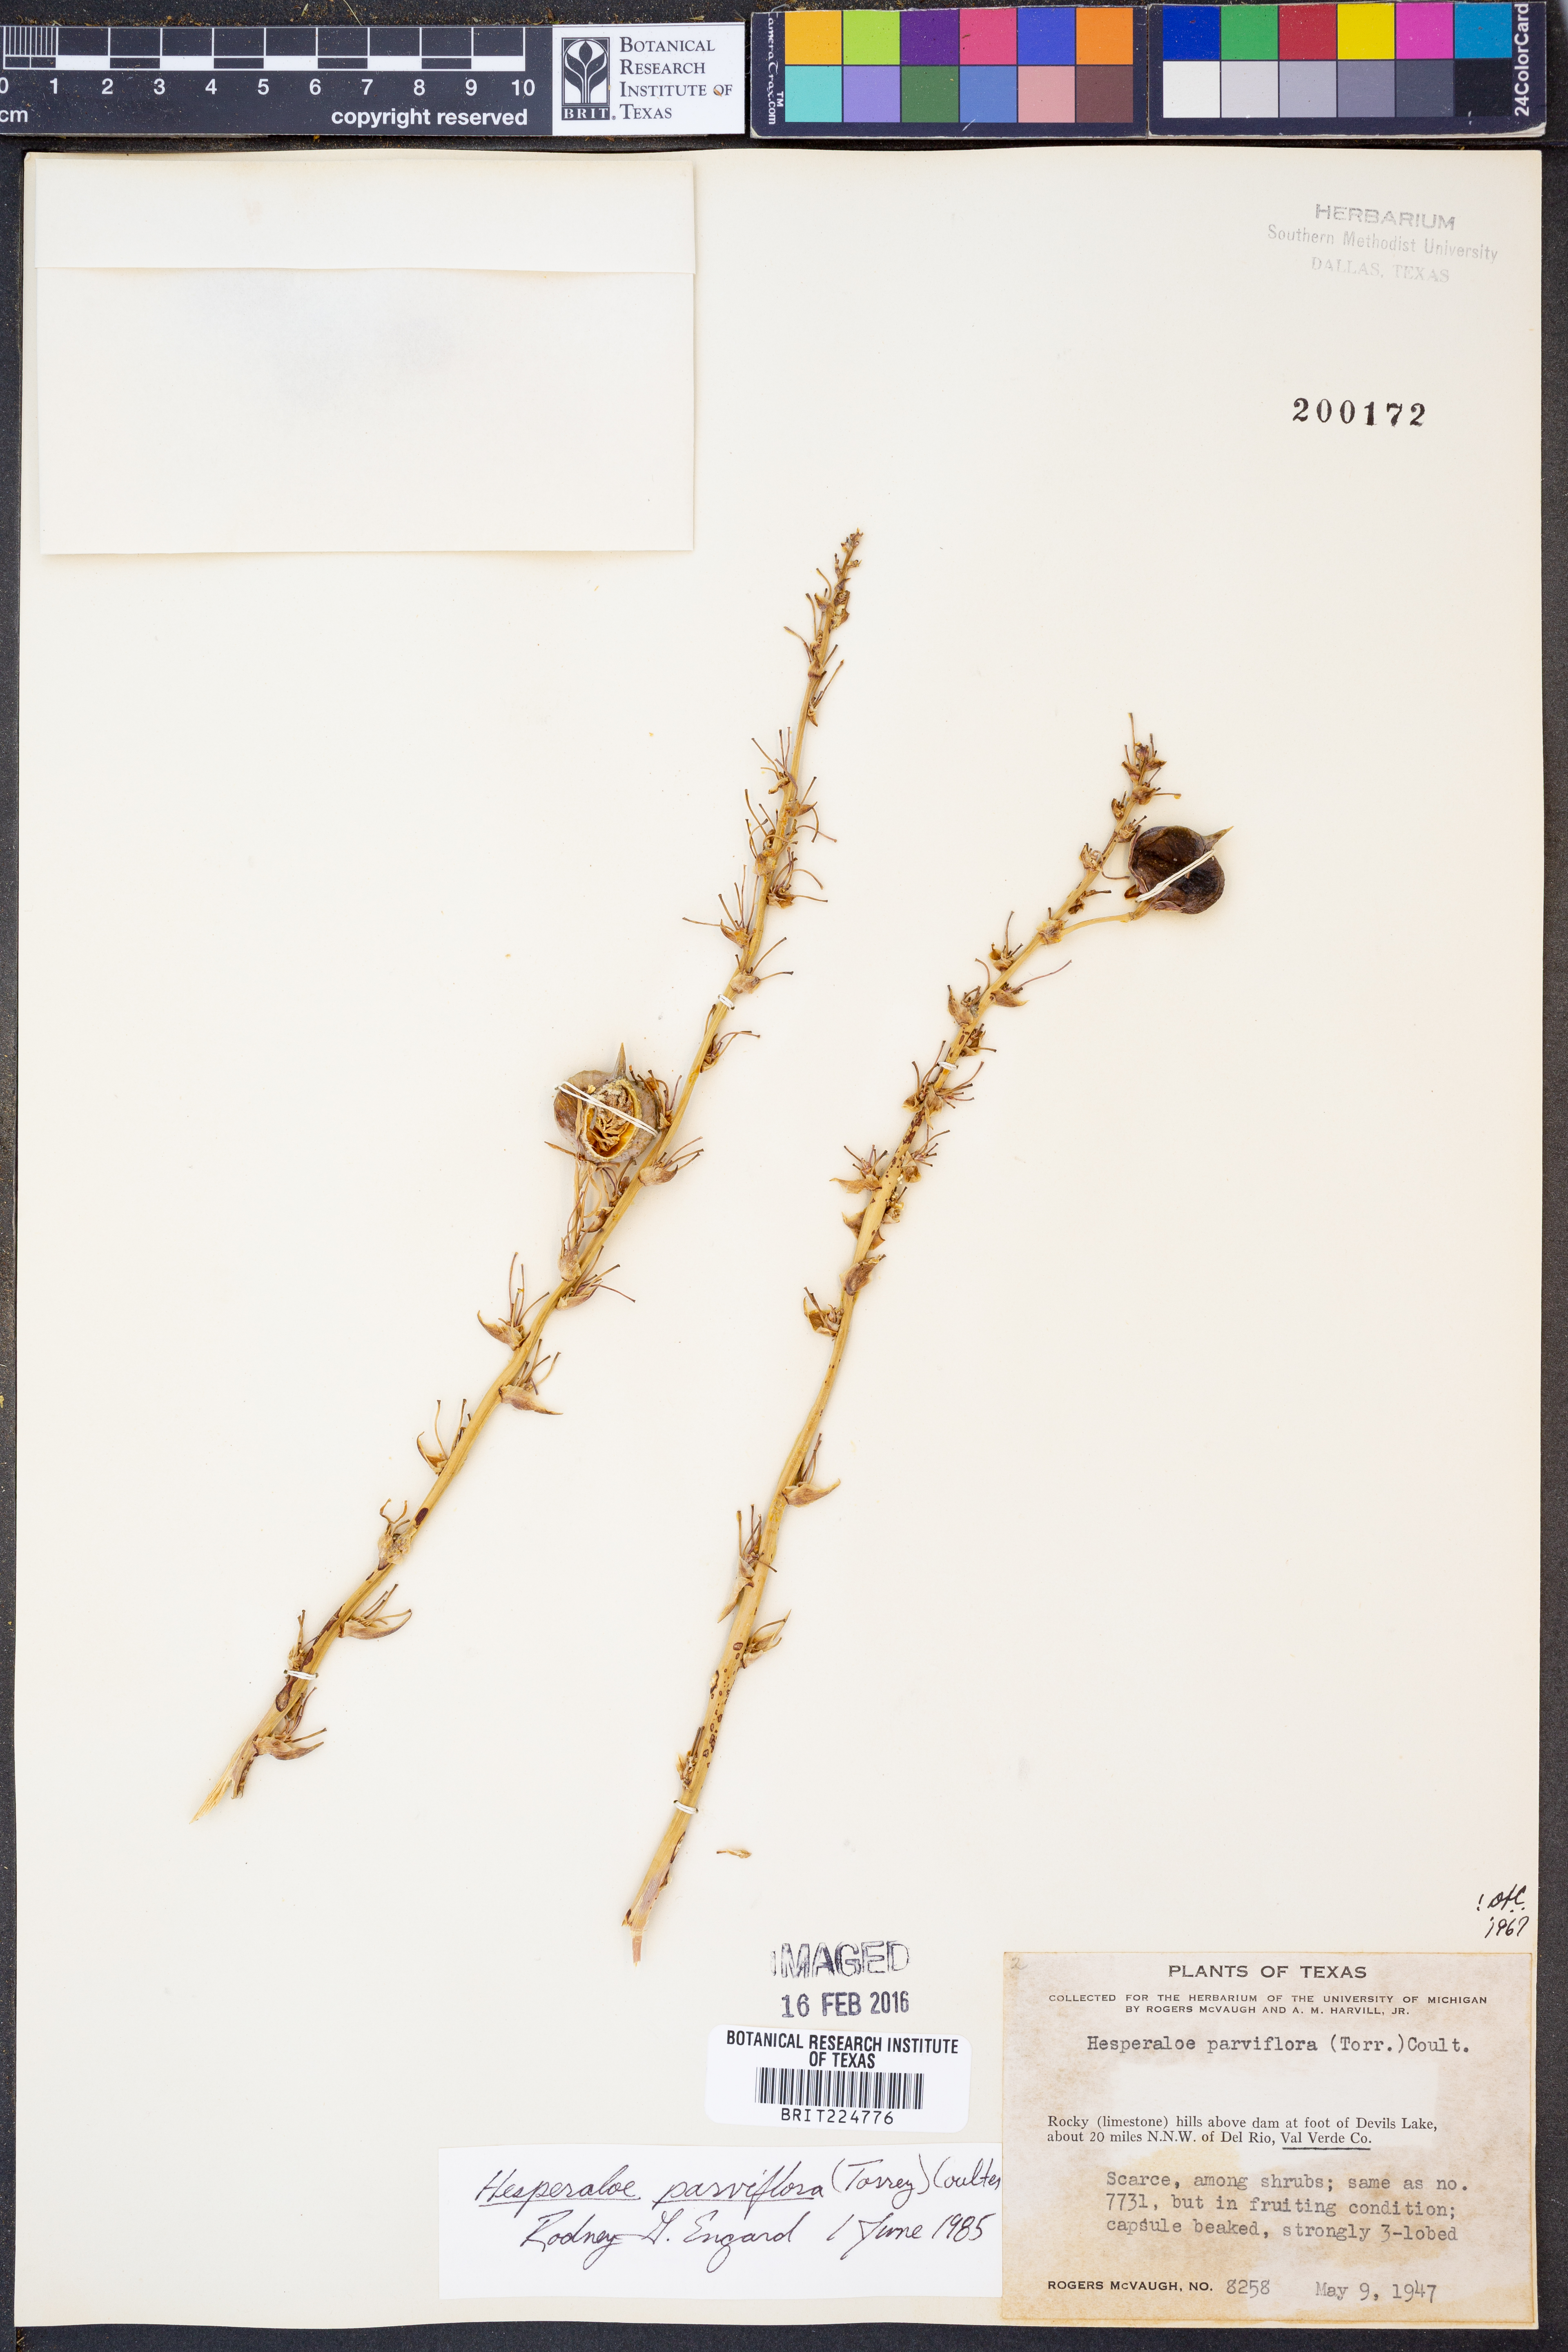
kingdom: Plantae
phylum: Tracheophyta
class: Liliopsida
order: Asparagales
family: Asparagaceae
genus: Hesperaloe
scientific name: Hesperaloe parviflora
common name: Red hesperaloe
